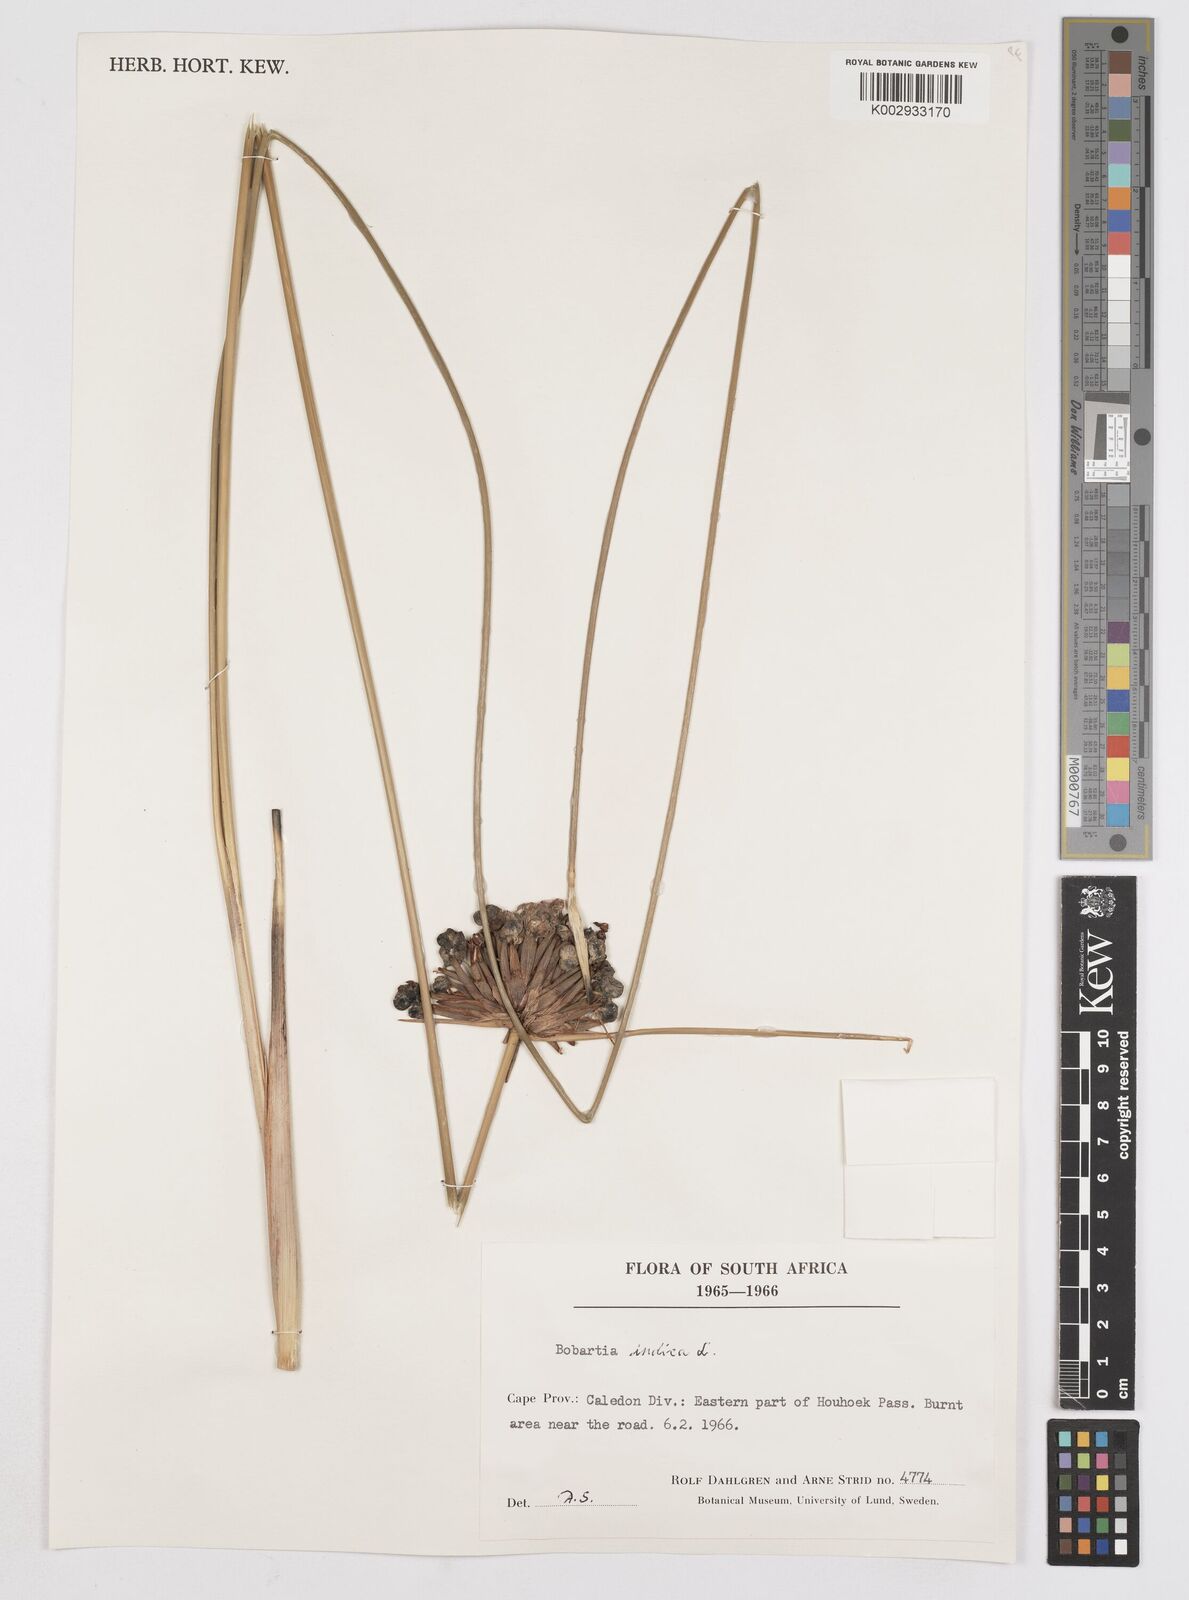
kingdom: Plantae
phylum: Tracheophyta
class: Liliopsida
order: Asparagales
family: Iridaceae
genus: Bobartia
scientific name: Bobartia indica
